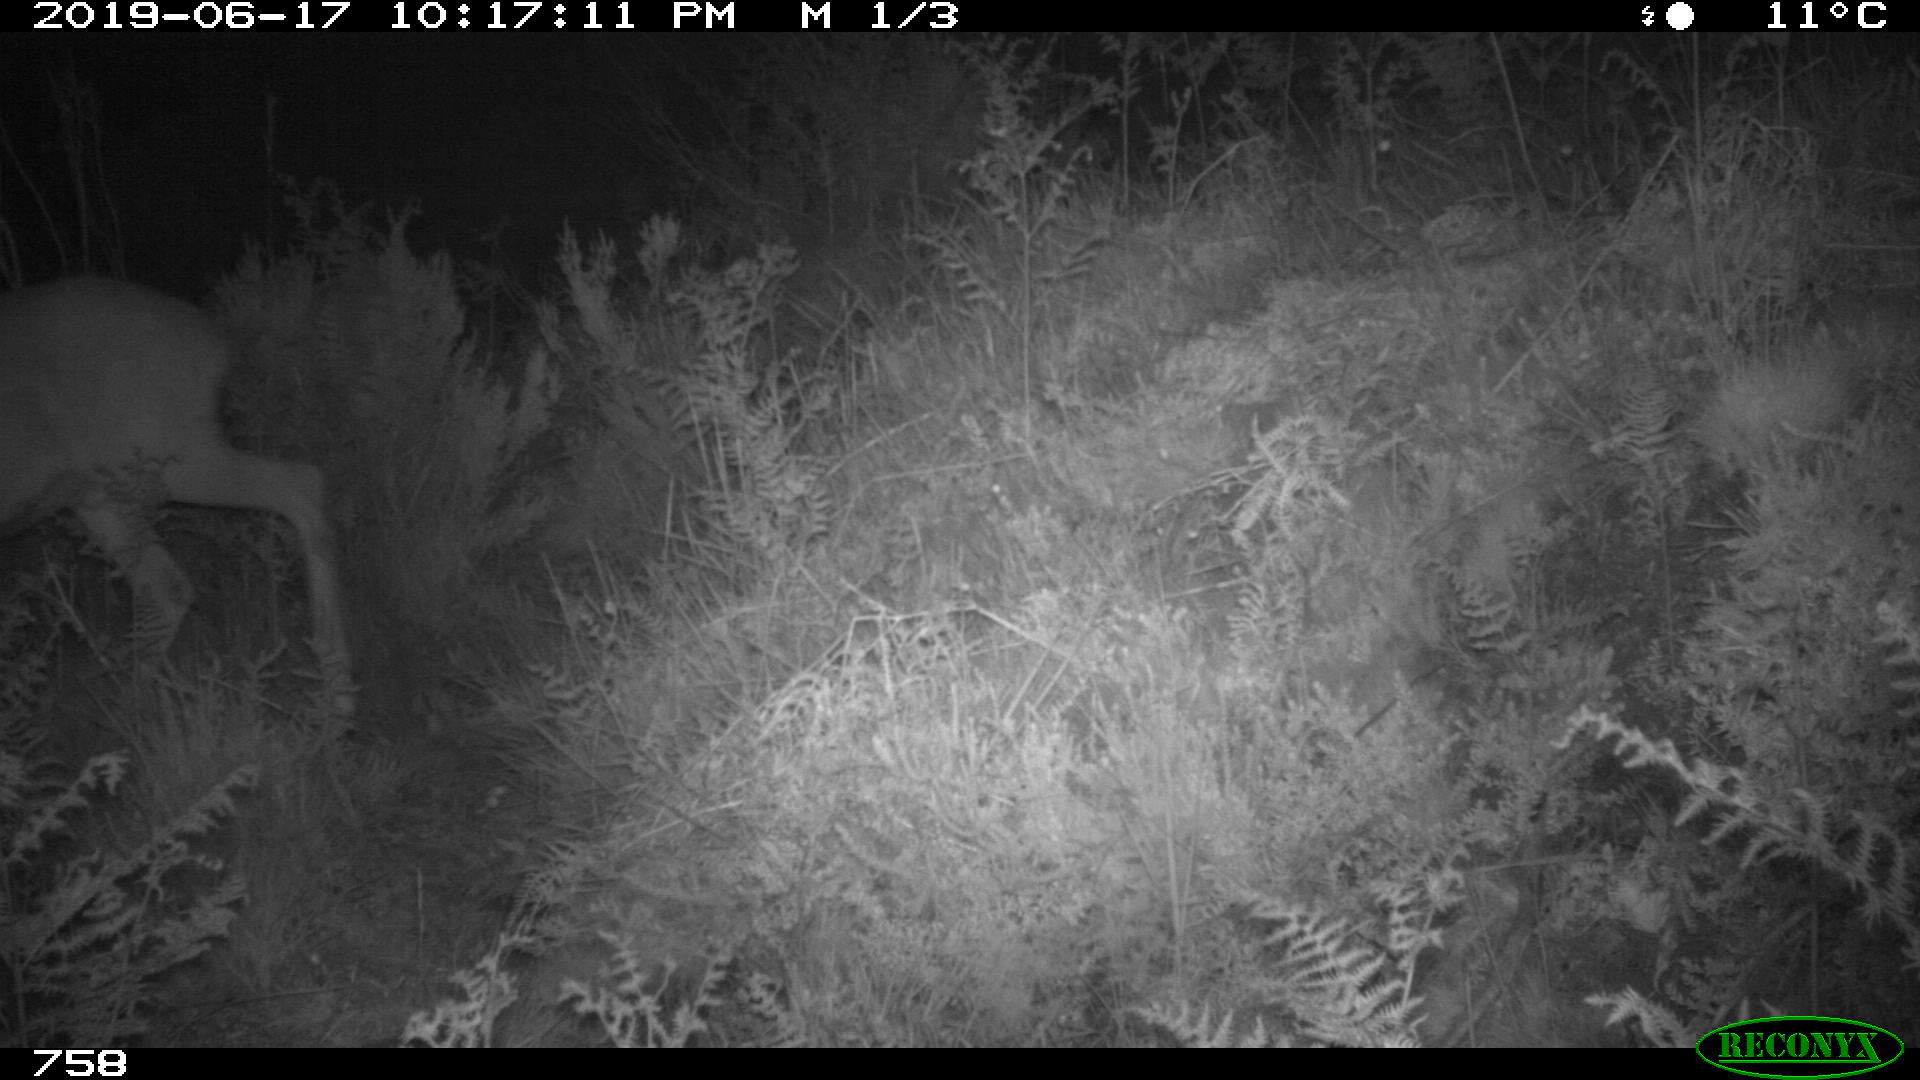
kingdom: Animalia
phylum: Chordata
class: Mammalia
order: Artiodactyla
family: Cervidae
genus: Capreolus
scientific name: Capreolus capreolus
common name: Western roe deer
